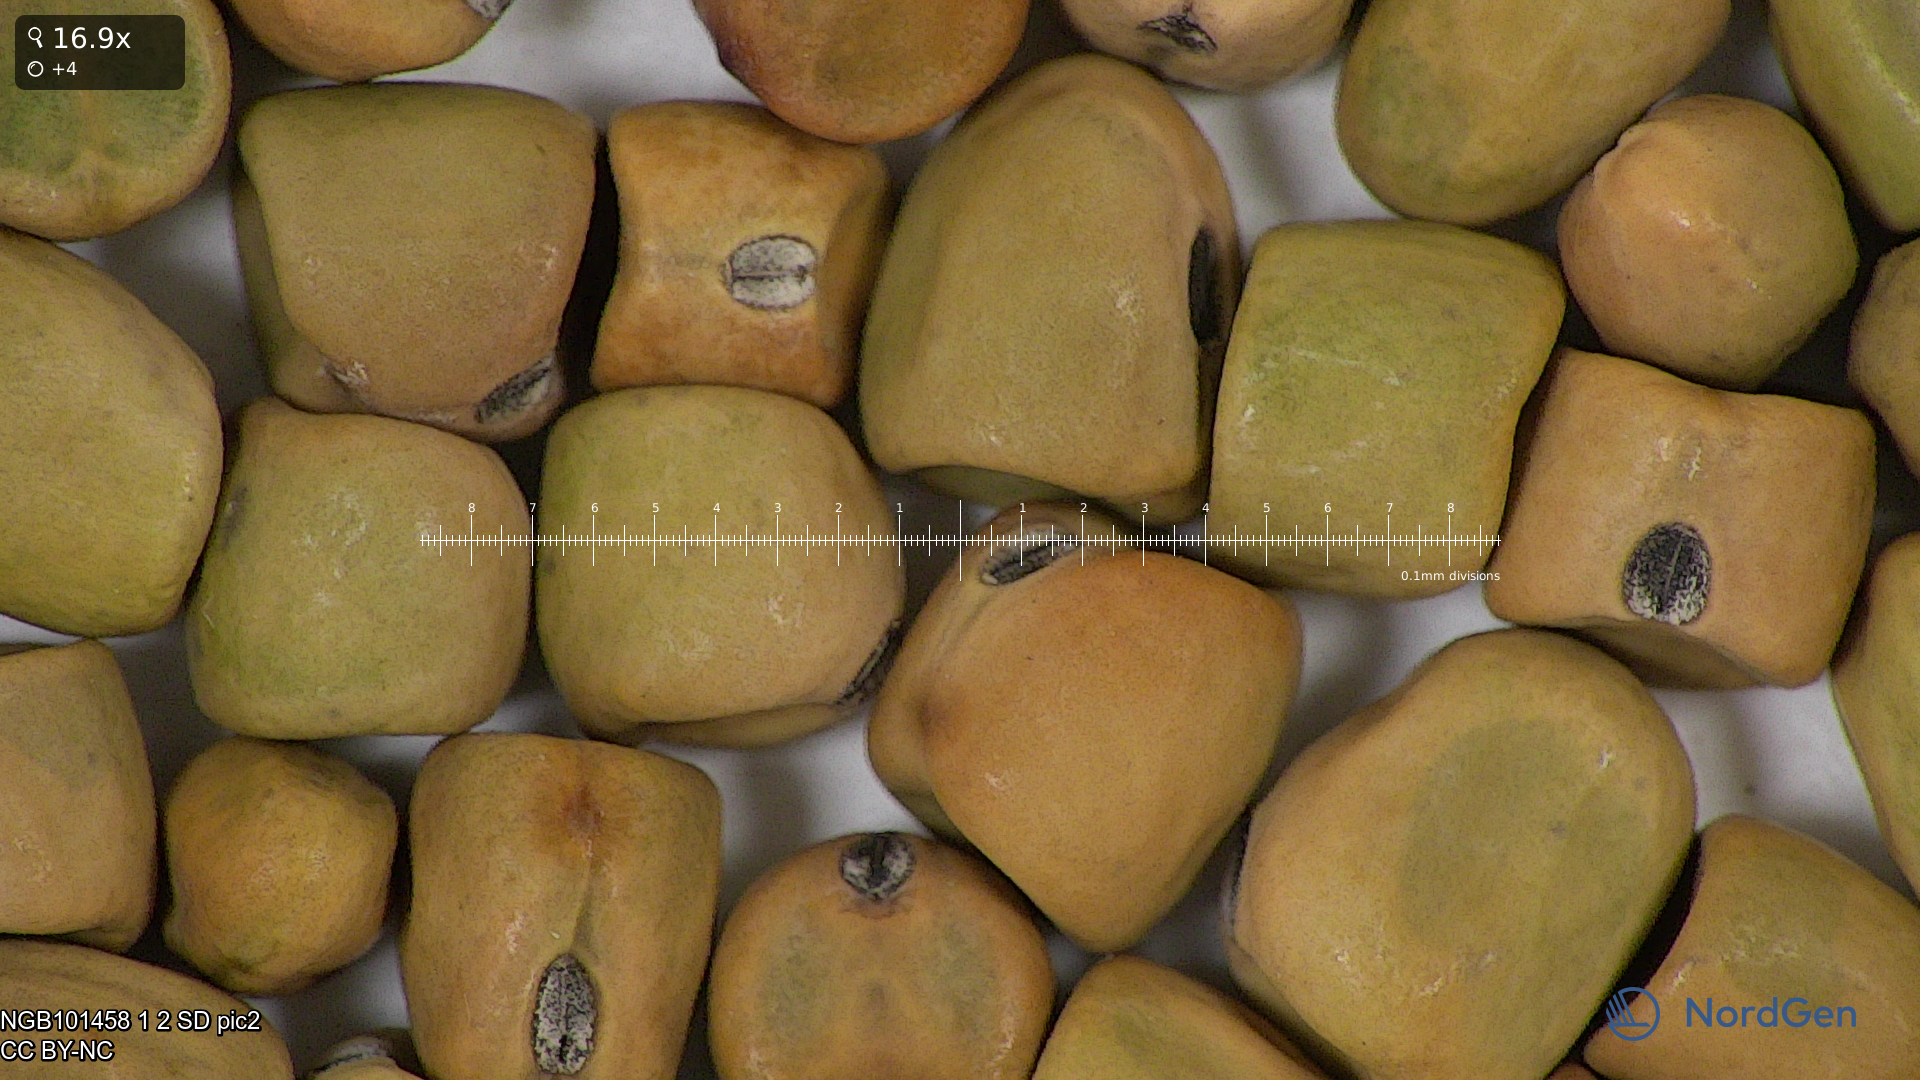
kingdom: Plantae
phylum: Tracheophyta
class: Magnoliopsida
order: Fabales
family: Fabaceae
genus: Lathyrus
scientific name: Lathyrus oleraceus
